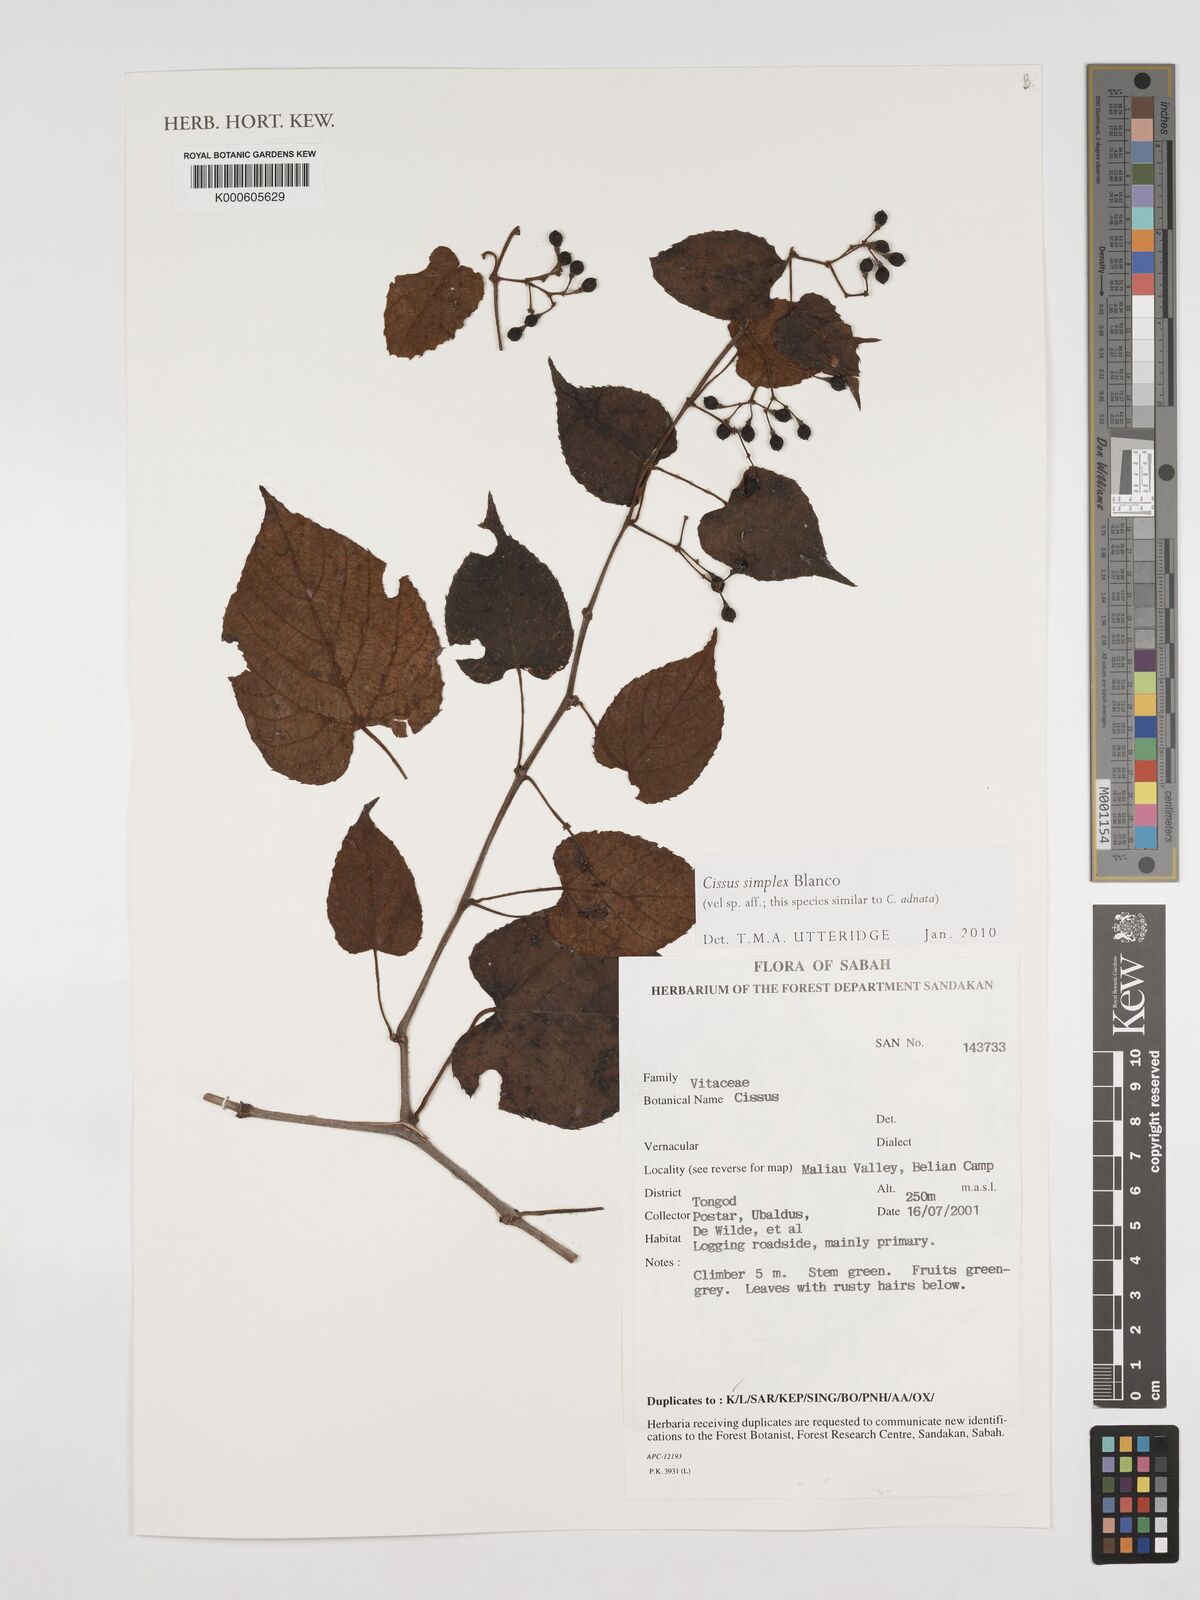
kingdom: Plantae
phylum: Tracheophyta
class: Magnoliopsida
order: Vitales
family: Vitaceae
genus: Cissus
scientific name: Cissus aristata
